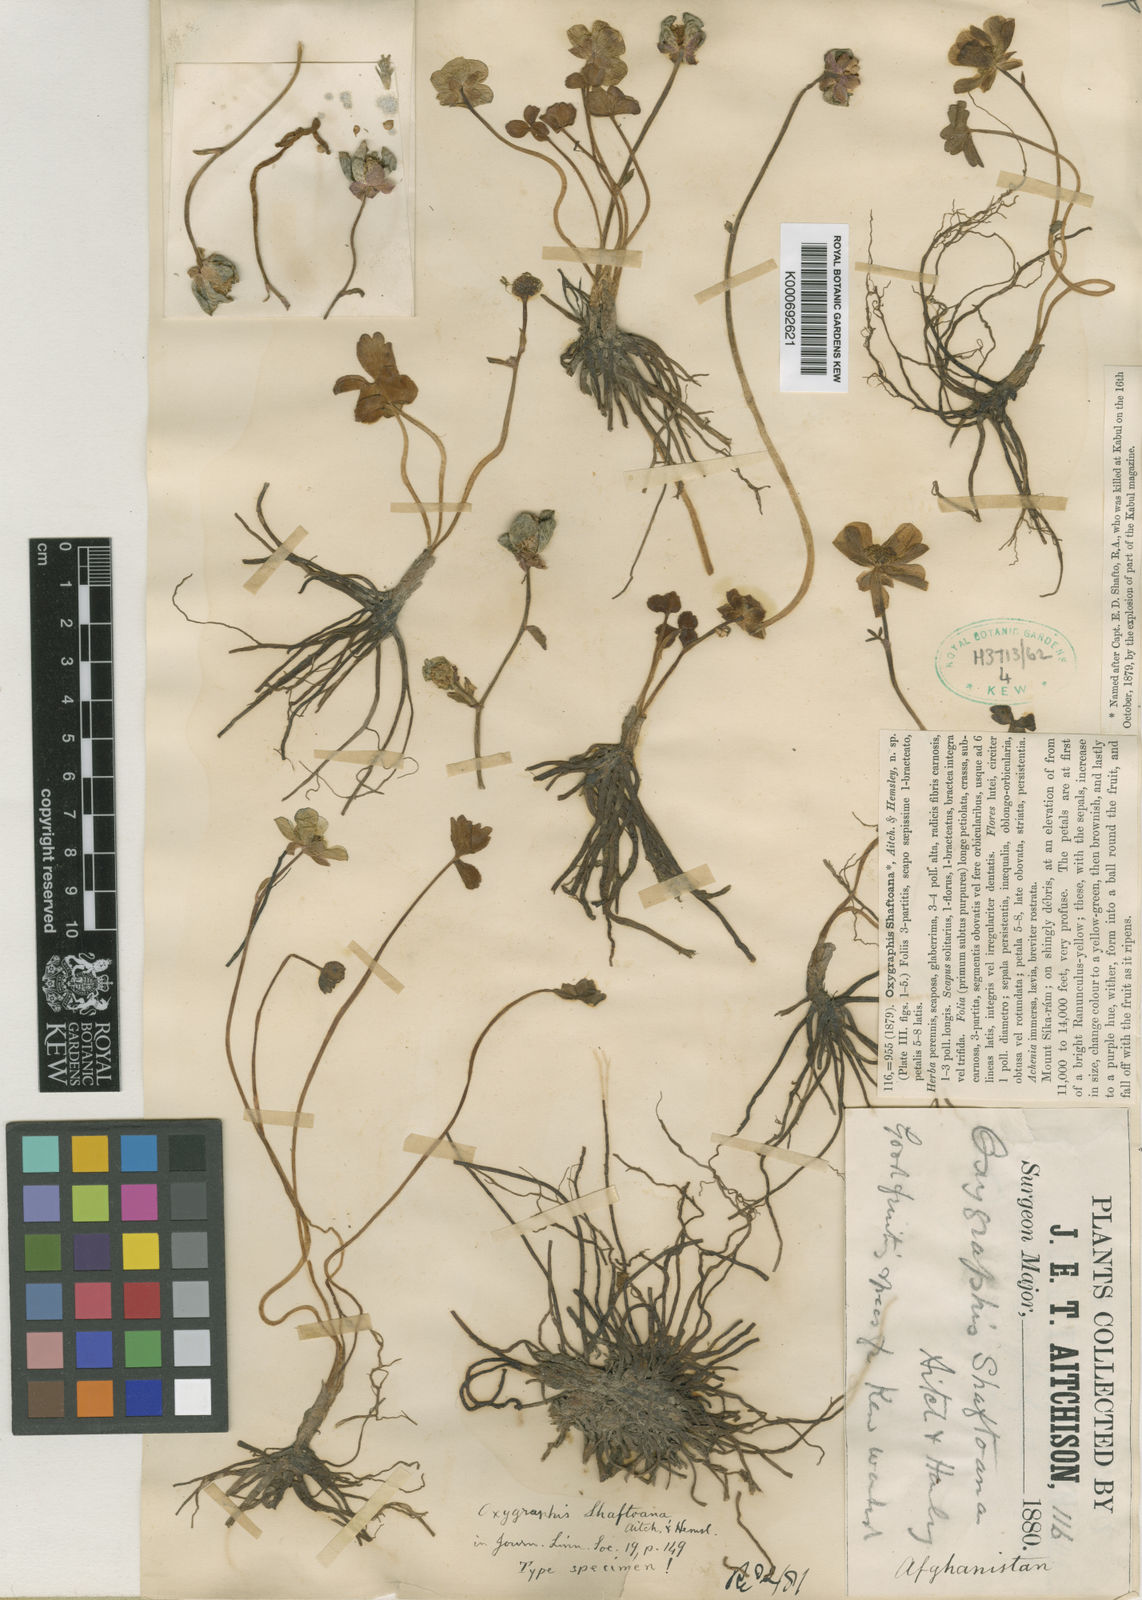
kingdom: Plantae
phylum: Tracheophyta
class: Magnoliopsida
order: Ranunculales
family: Ranunculaceae
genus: Ranunculus
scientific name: Ranunculus
